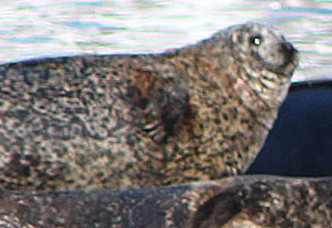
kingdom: Animalia
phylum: Chordata
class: Mammalia
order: Carnivora
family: Phocidae
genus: Phoca
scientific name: Phoca vitulina
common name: Harbor seal
